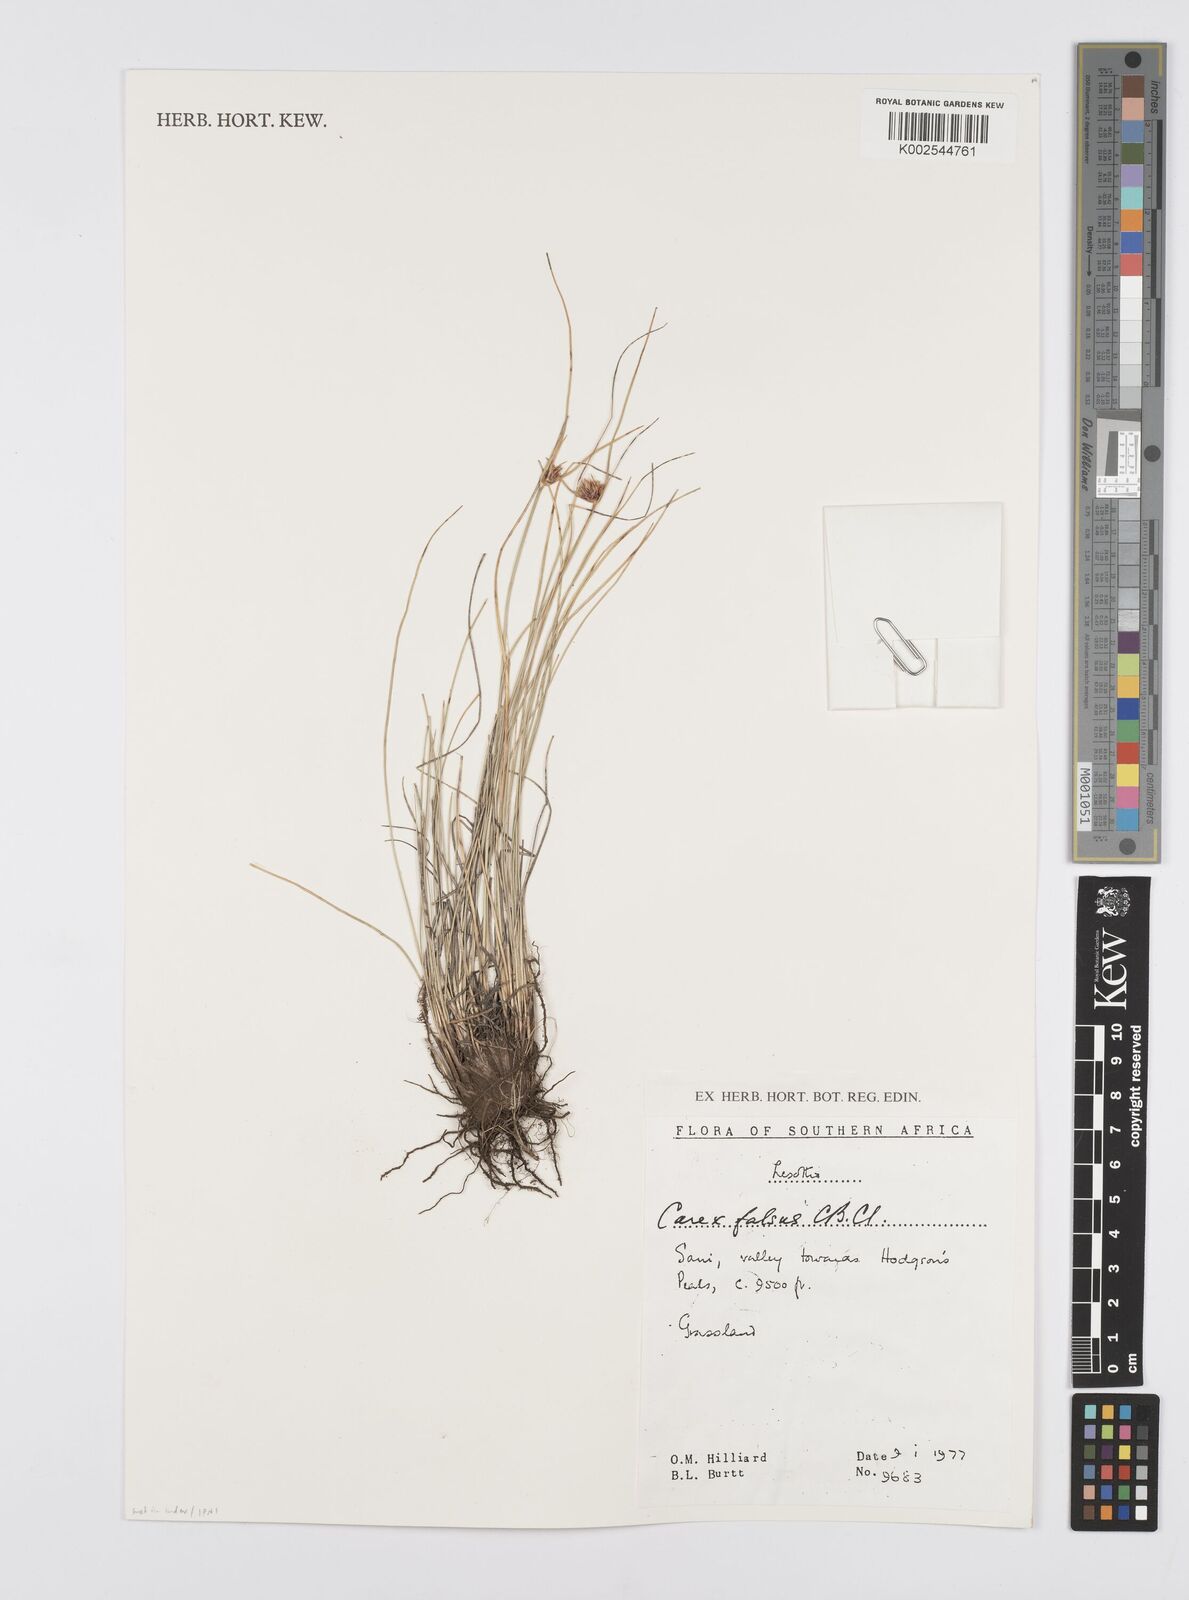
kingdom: Plantae
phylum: Tracheophyta
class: Liliopsida
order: Poales
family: Cyperaceae
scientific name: Cyperaceae
